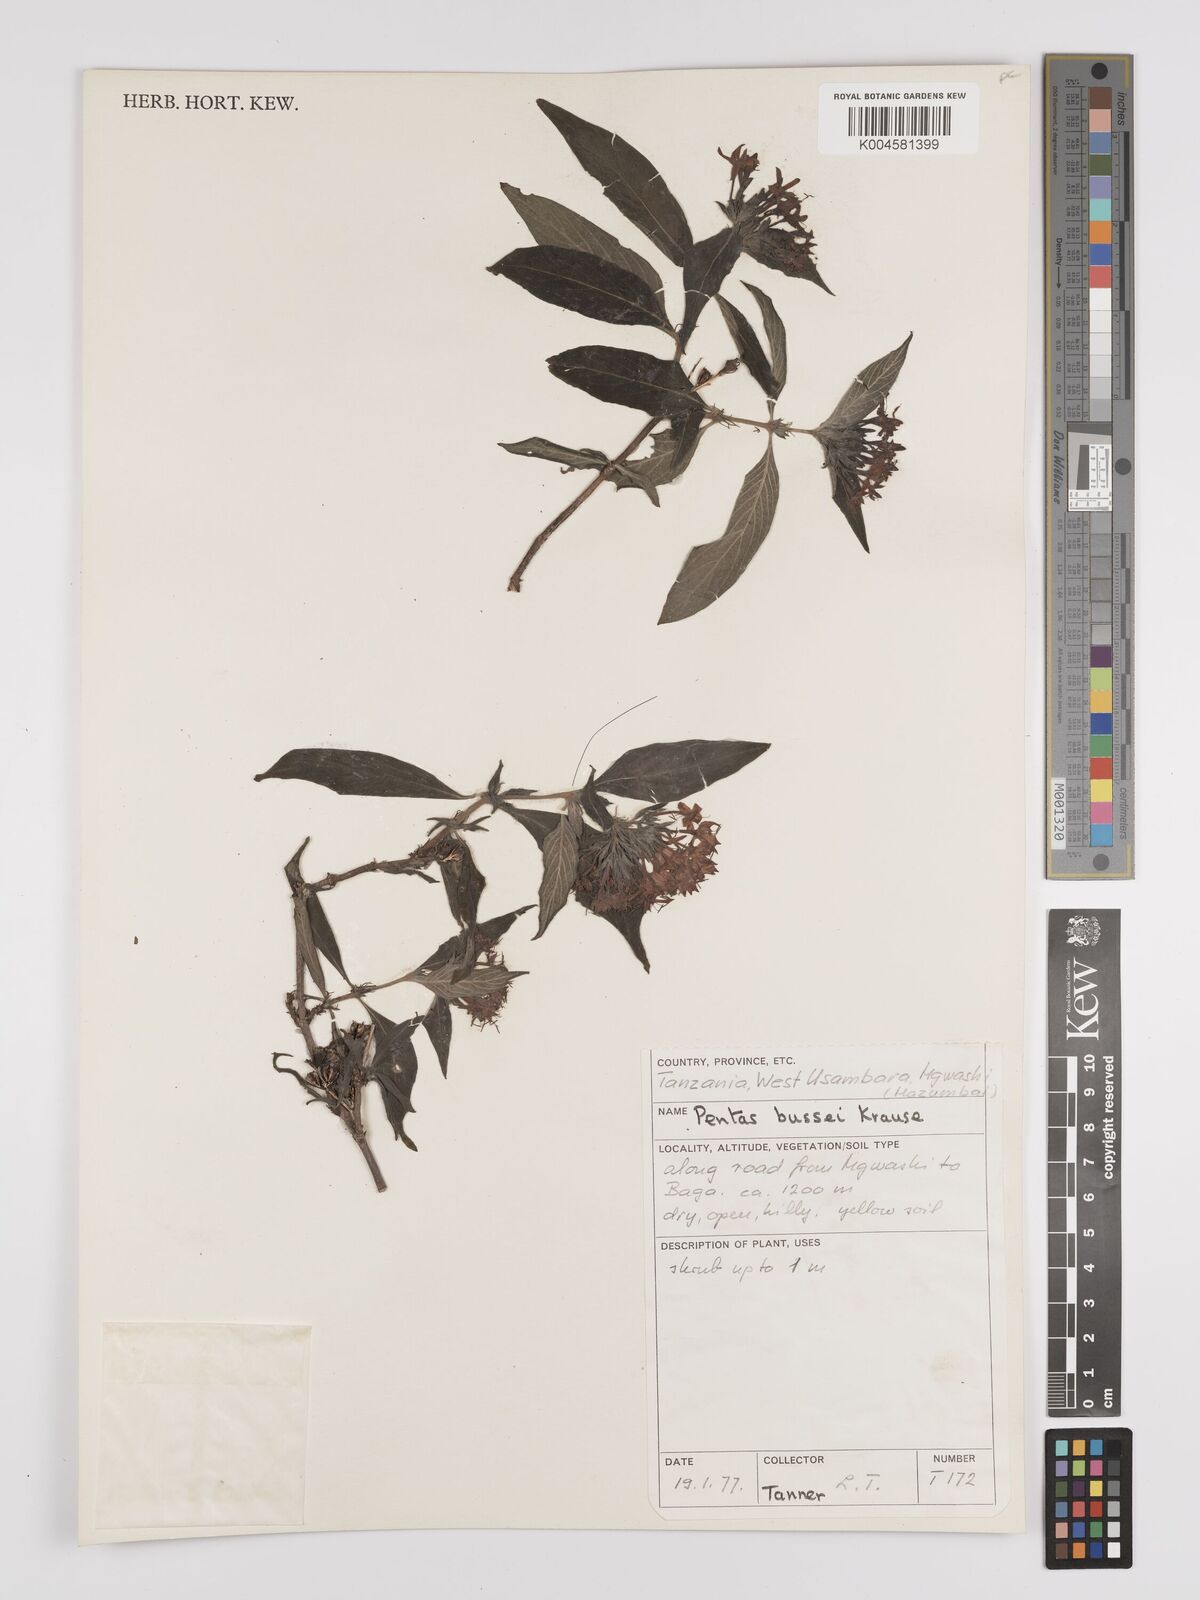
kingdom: Plantae
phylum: Tracheophyta
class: Magnoliopsida
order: Gentianales
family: Rubiaceae
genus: Rhodopentas
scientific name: Rhodopentas bussei
